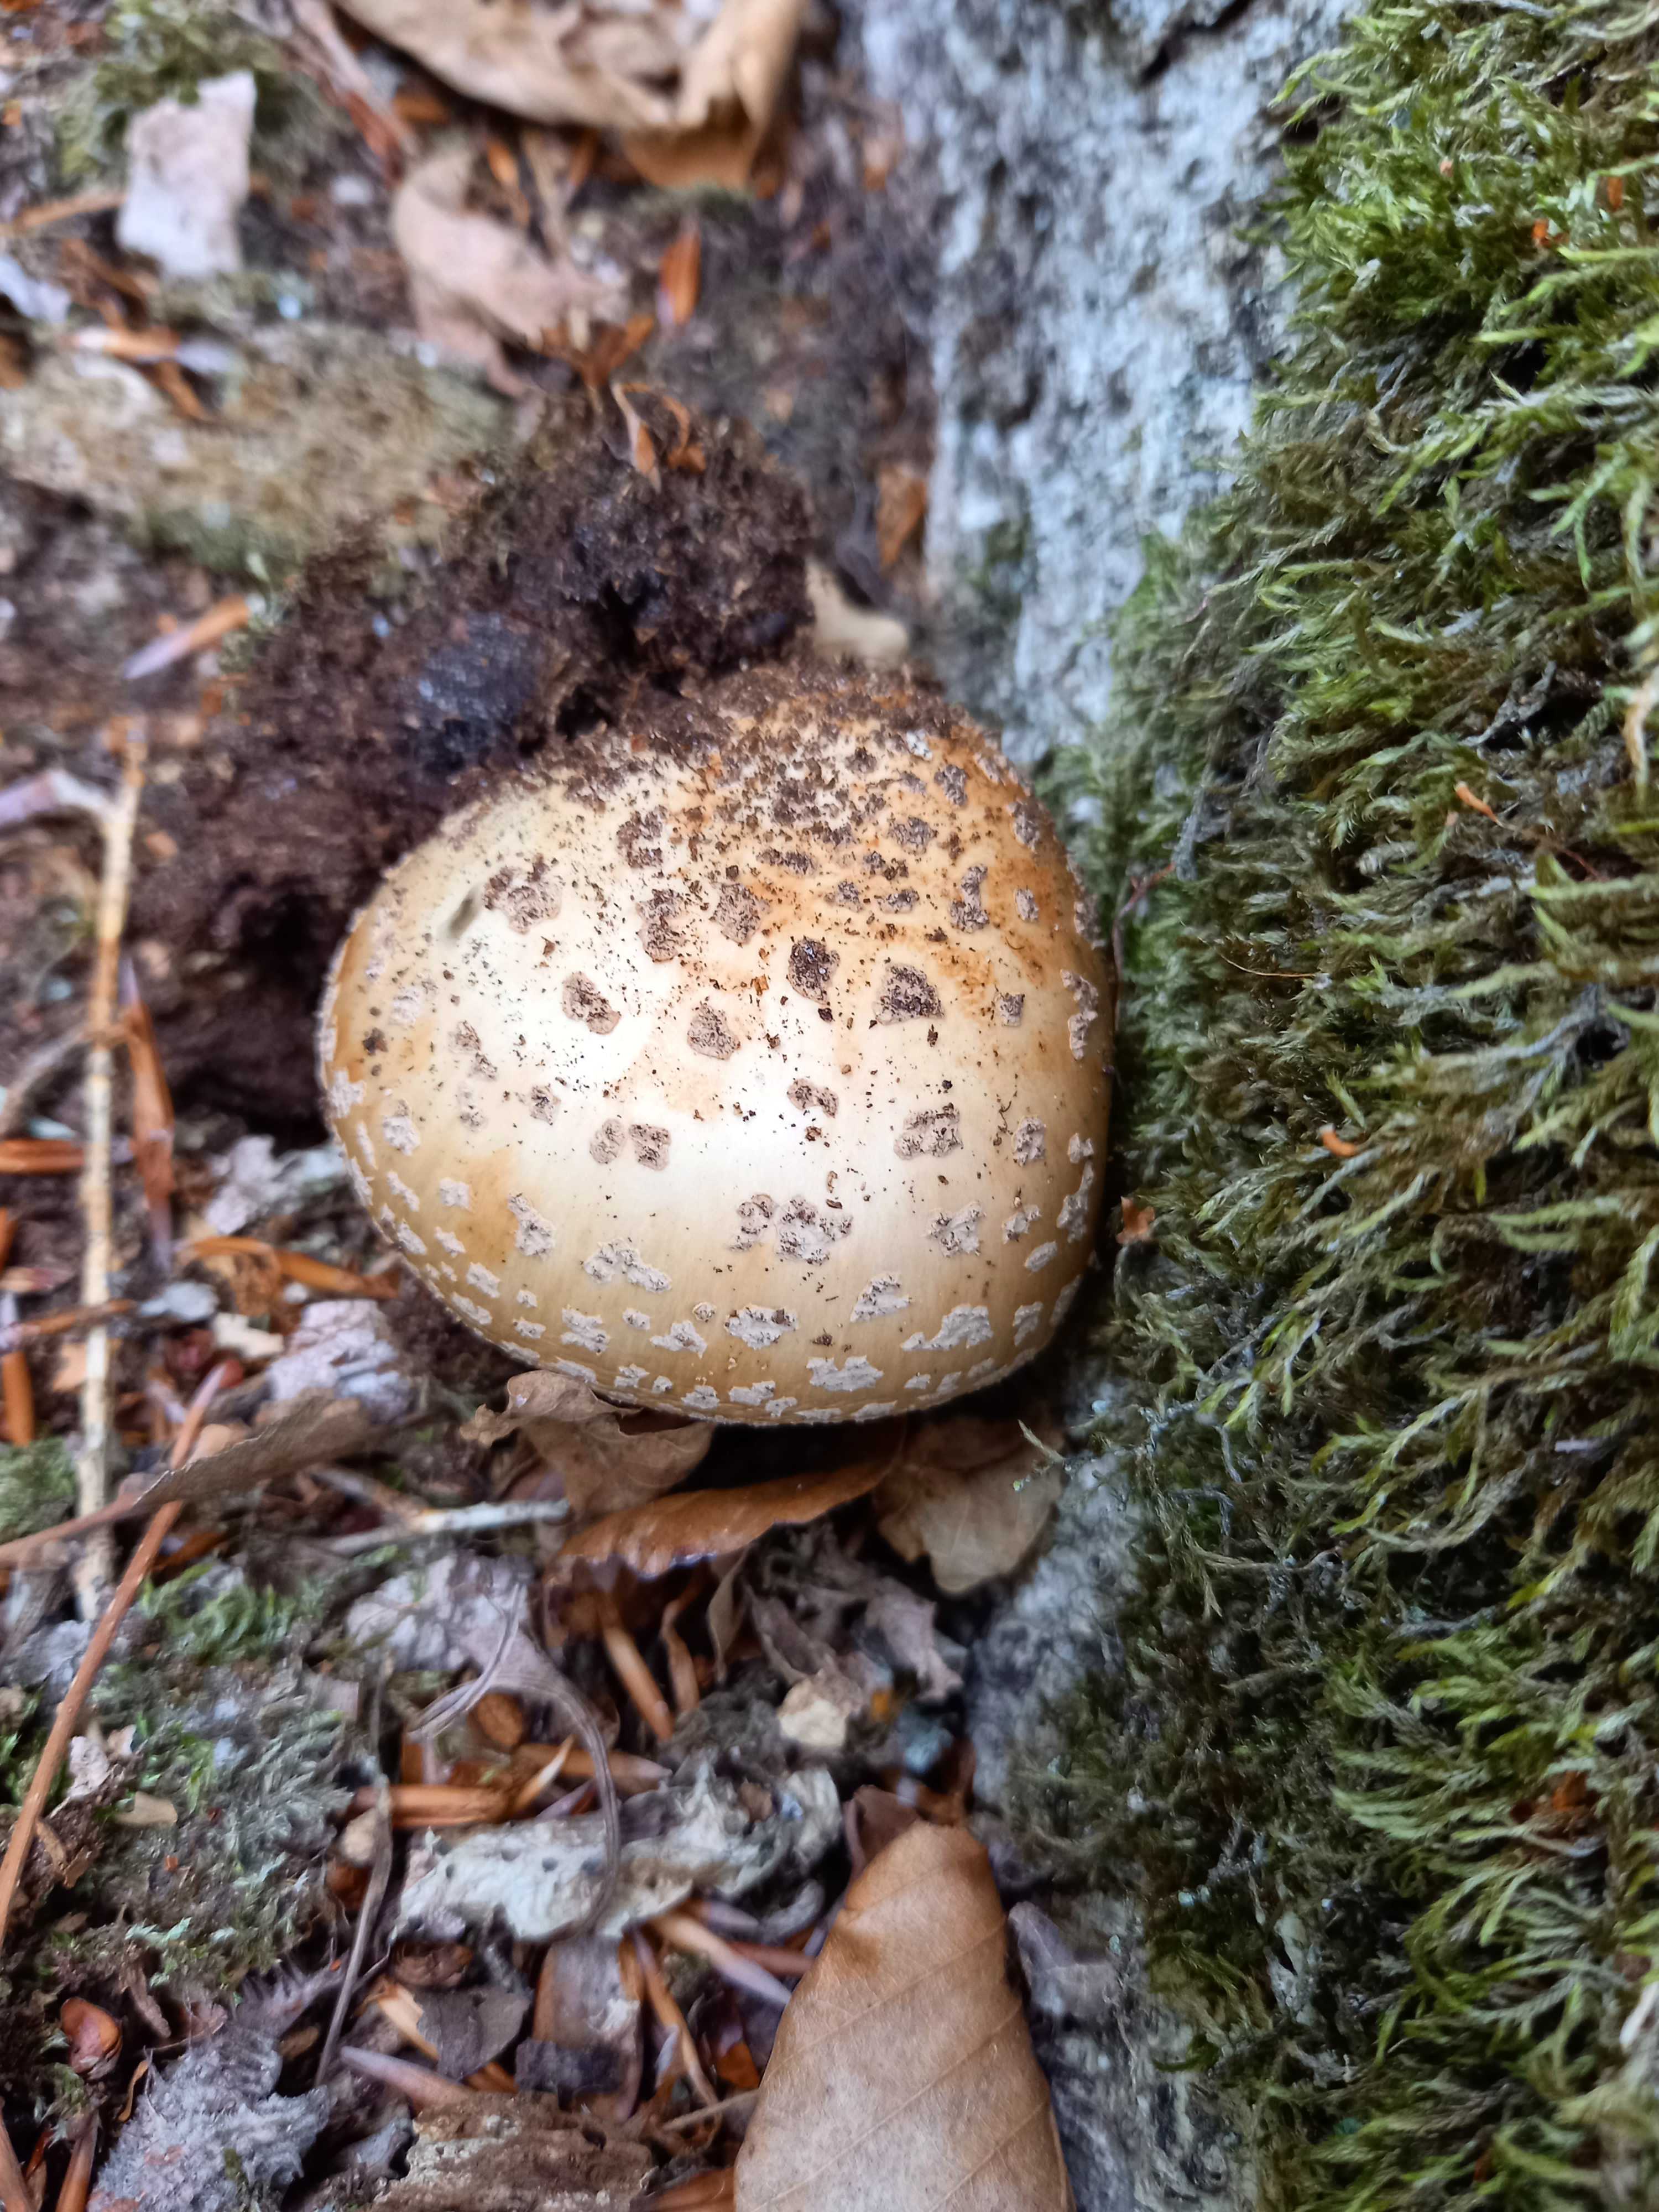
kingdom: Fungi
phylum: Basidiomycota
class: Agaricomycetes
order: Agaricales
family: Amanitaceae
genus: Amanita
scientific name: Amanita rubescens
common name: rødmende fluesvamp
